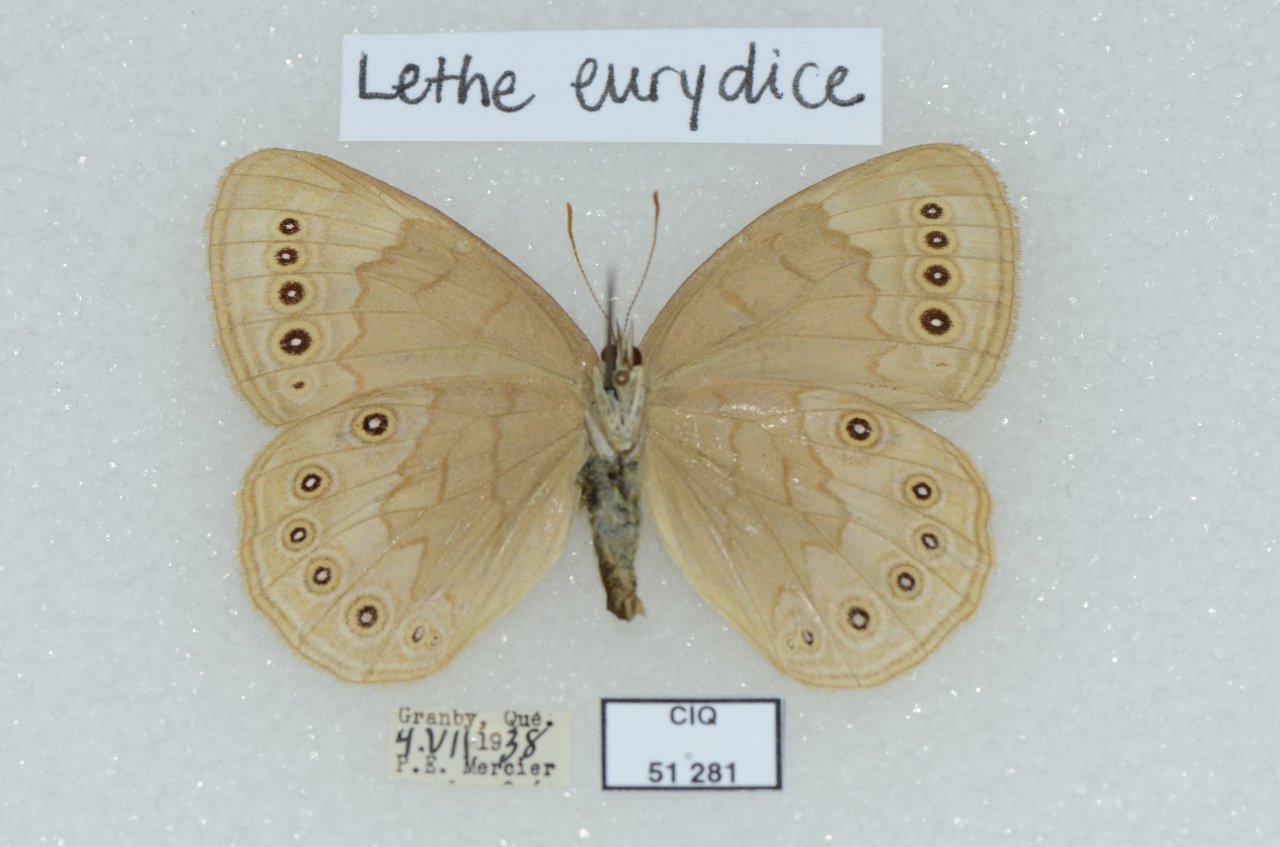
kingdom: Animalia
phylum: Arthropoda
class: Insecta
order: Lepidoptera
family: Nymphalidae
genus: Lethe
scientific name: Lethe eurydice
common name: Eyed Brown
